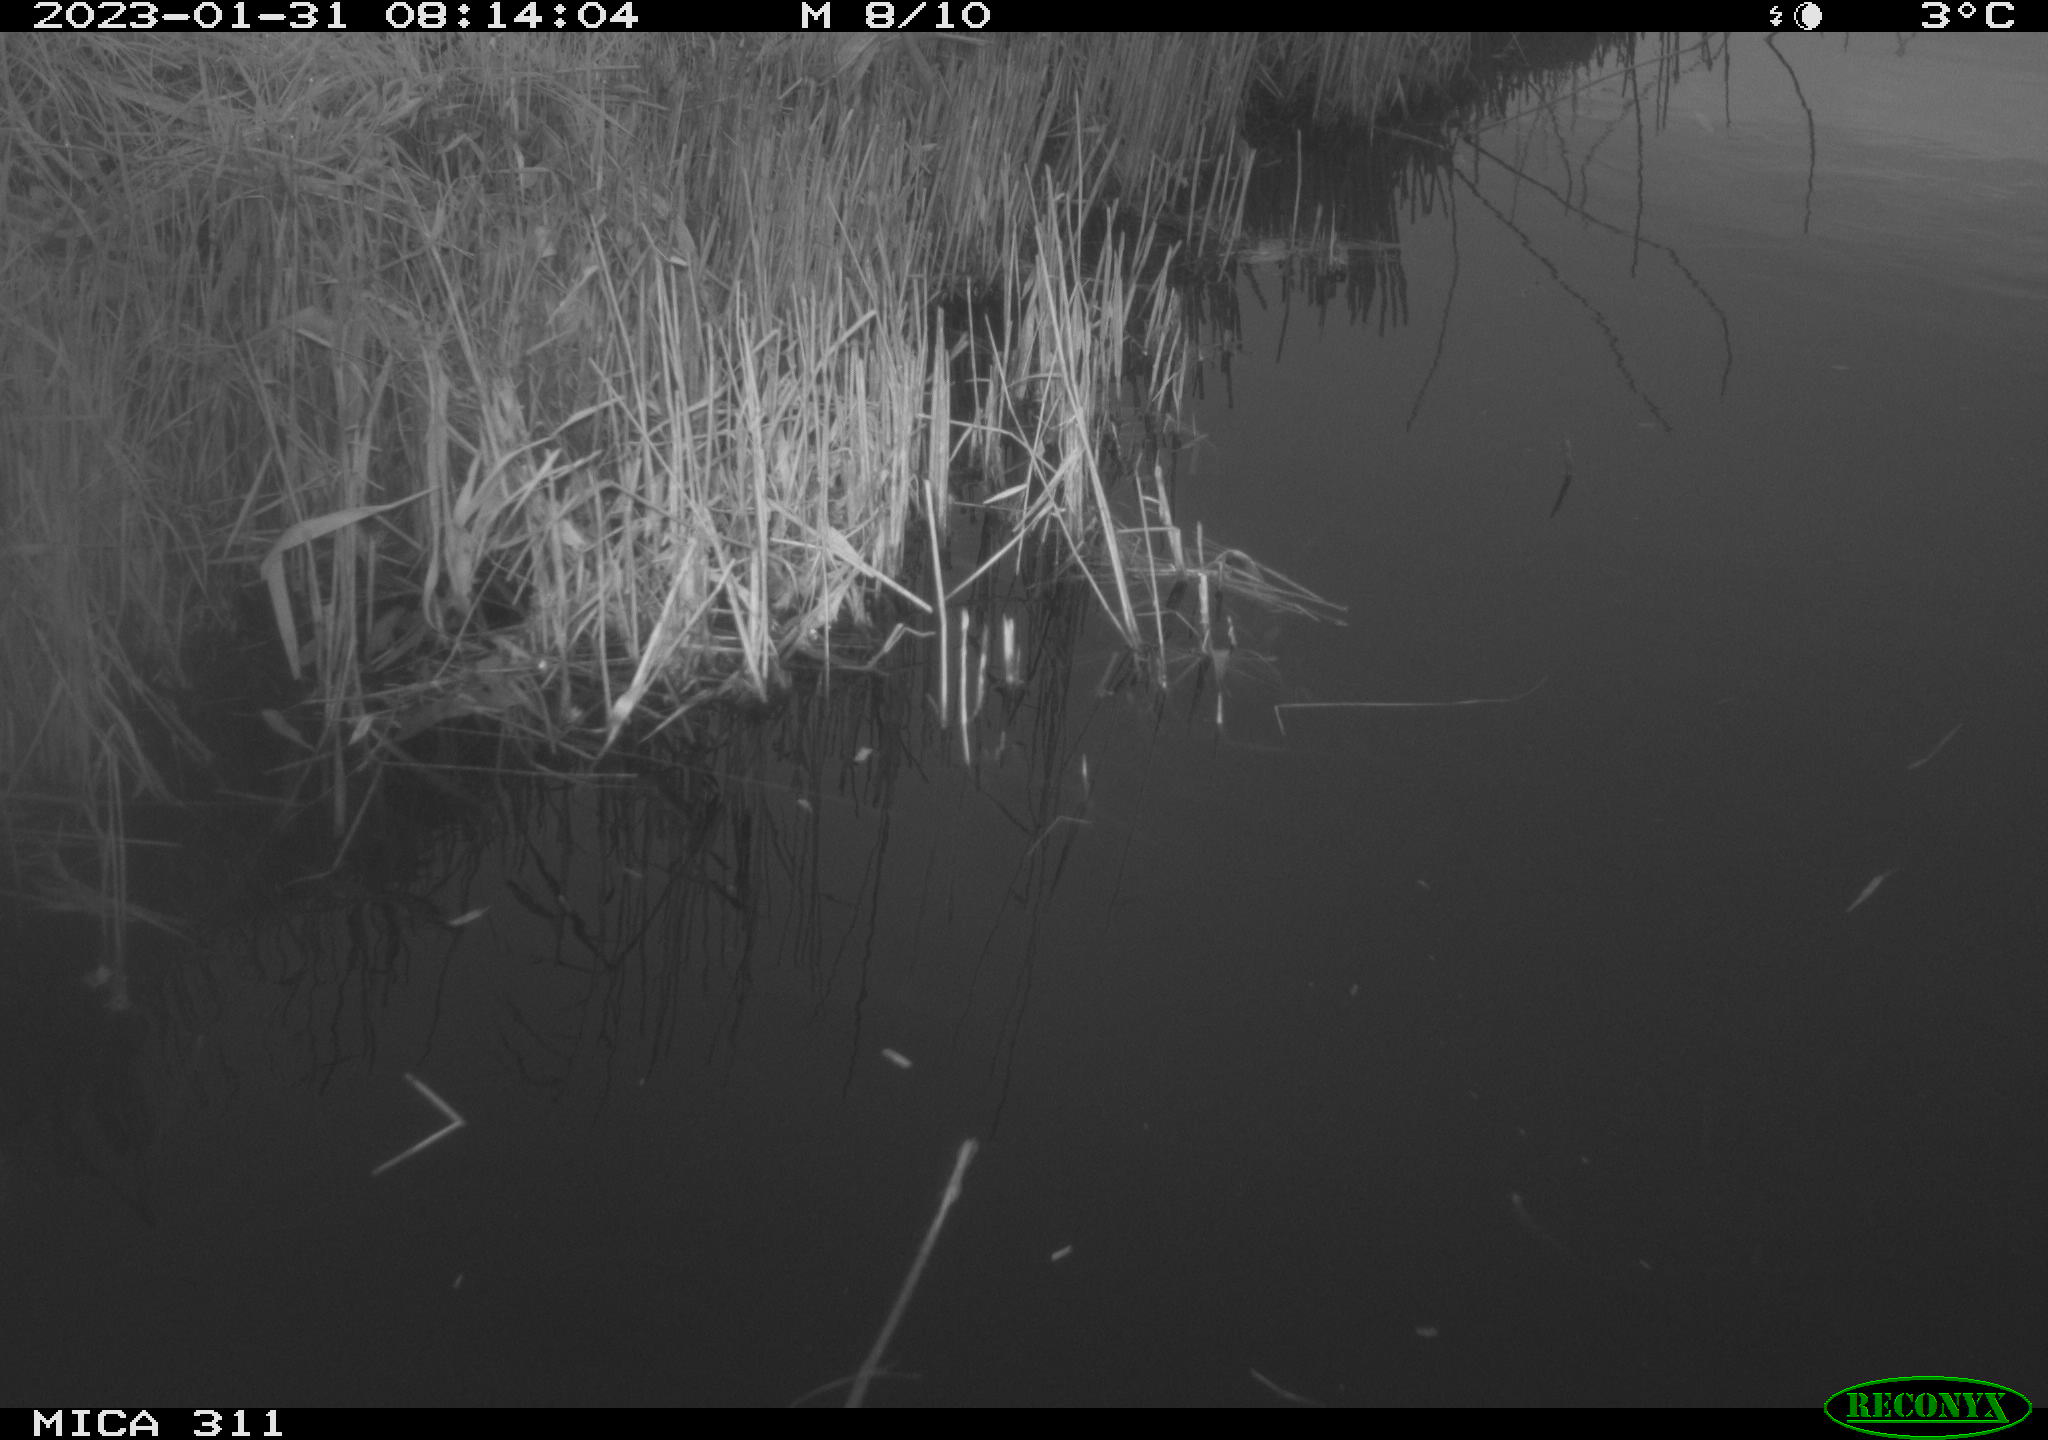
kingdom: Animalia
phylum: Chordata
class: Aves
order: Gruiformes
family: Rallidae
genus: Gallinula
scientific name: Gallinula chloropus
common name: Common moorhen
